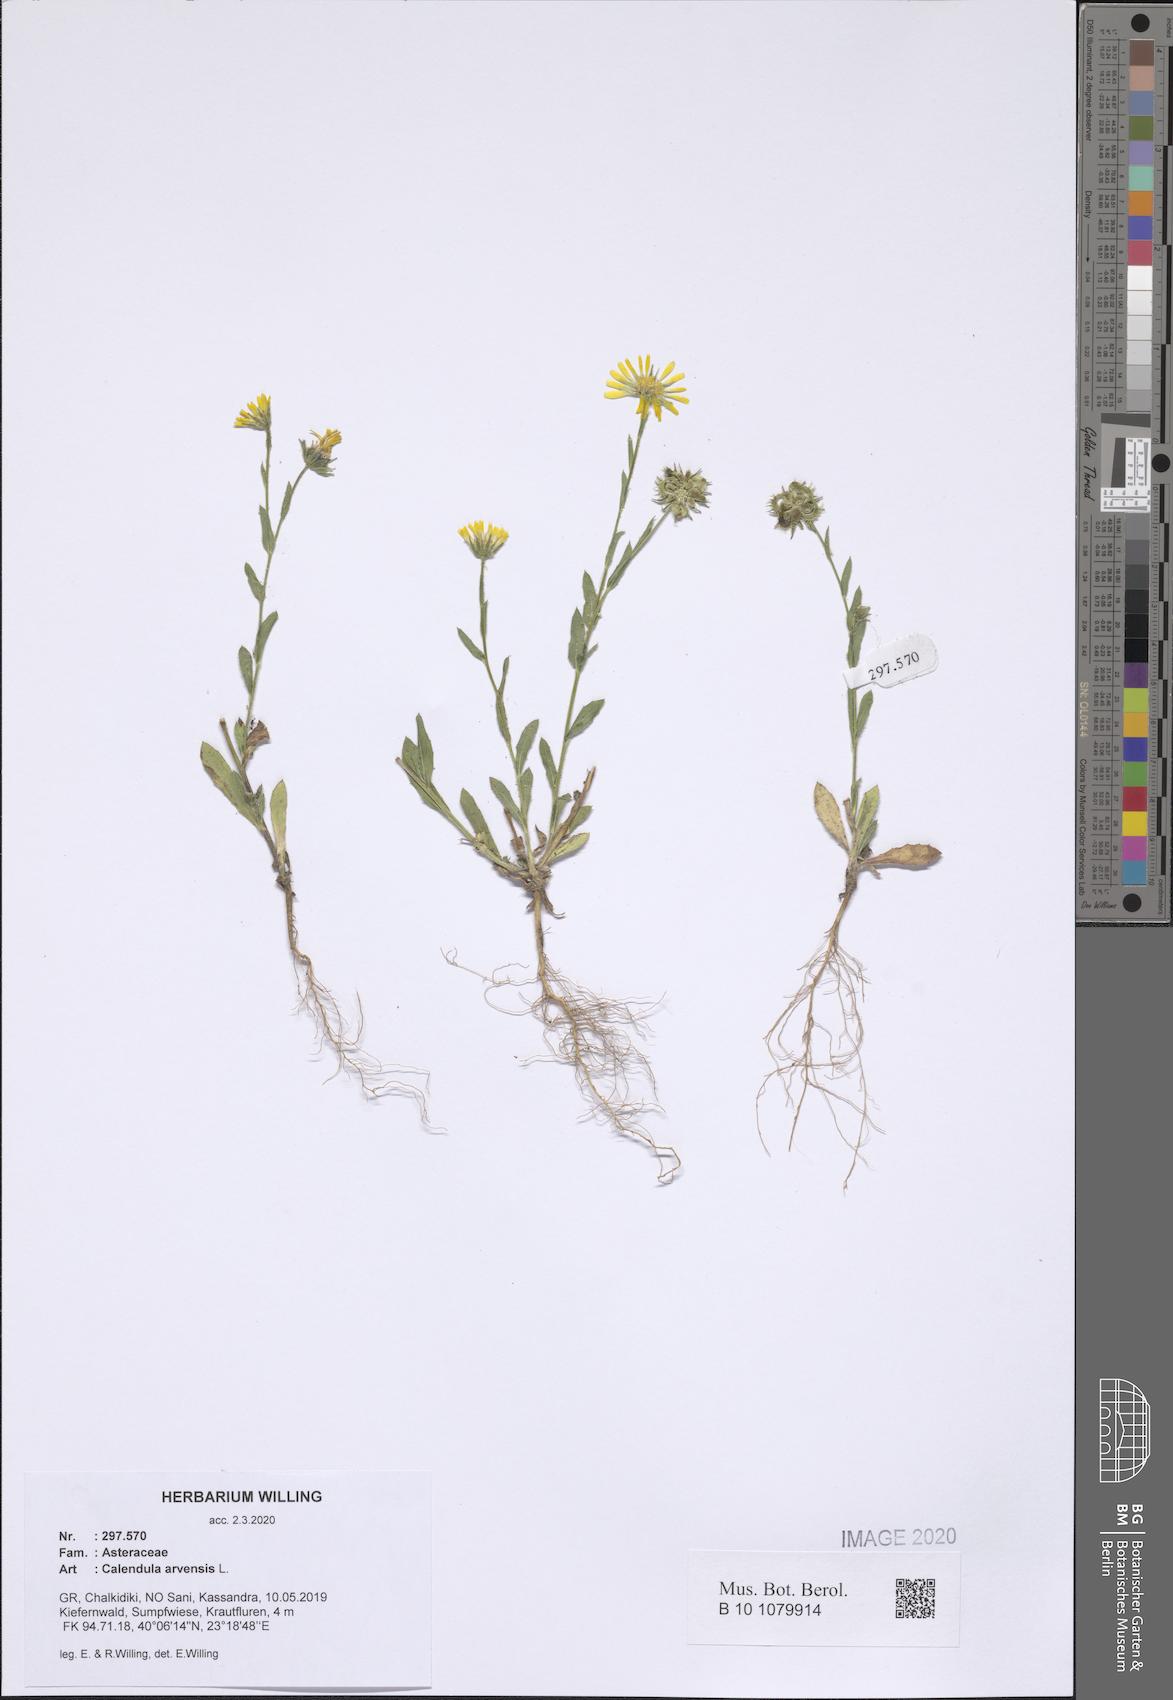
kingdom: Plantae
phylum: Tracheophyta
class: Magnoliopsida
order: Asterales
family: Asteraceae
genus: Calendula
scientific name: Calendula arvensis
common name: Field marigold
